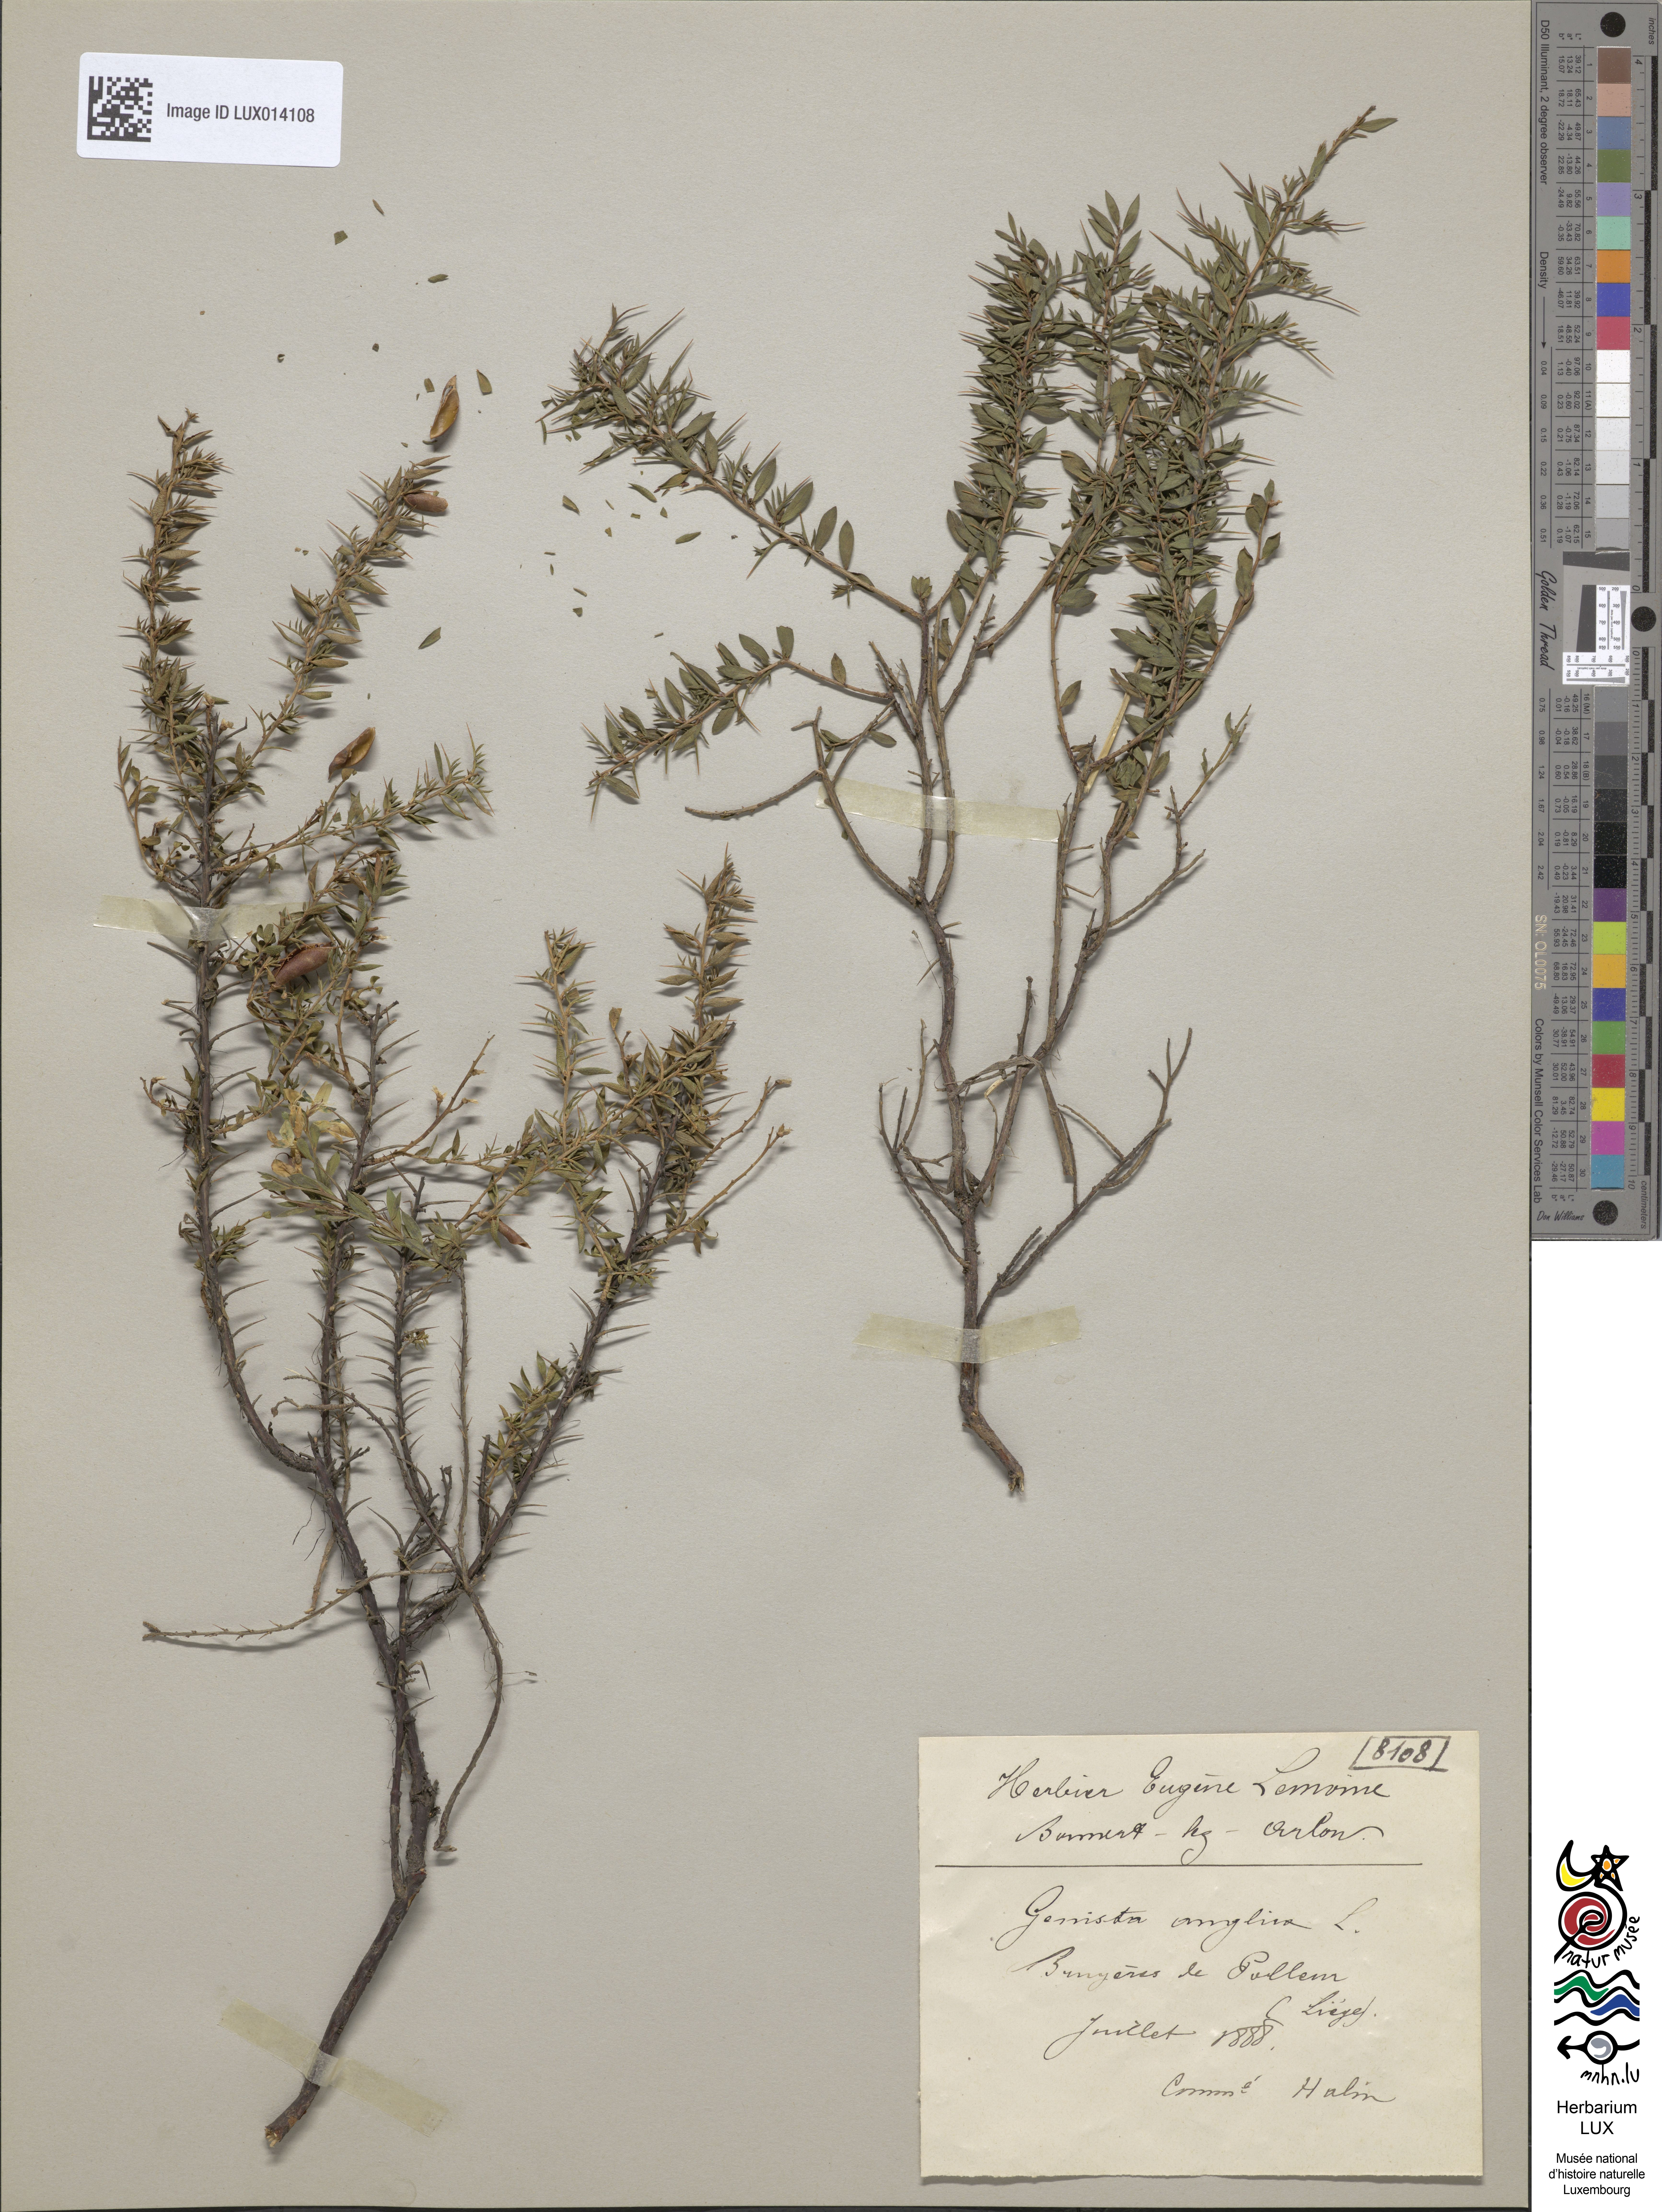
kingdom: Plantae
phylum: Tracheophyta
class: Magnoliopsida
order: Fabales
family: Fabaceae
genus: Genista
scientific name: Genista anglica
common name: Petty whin
